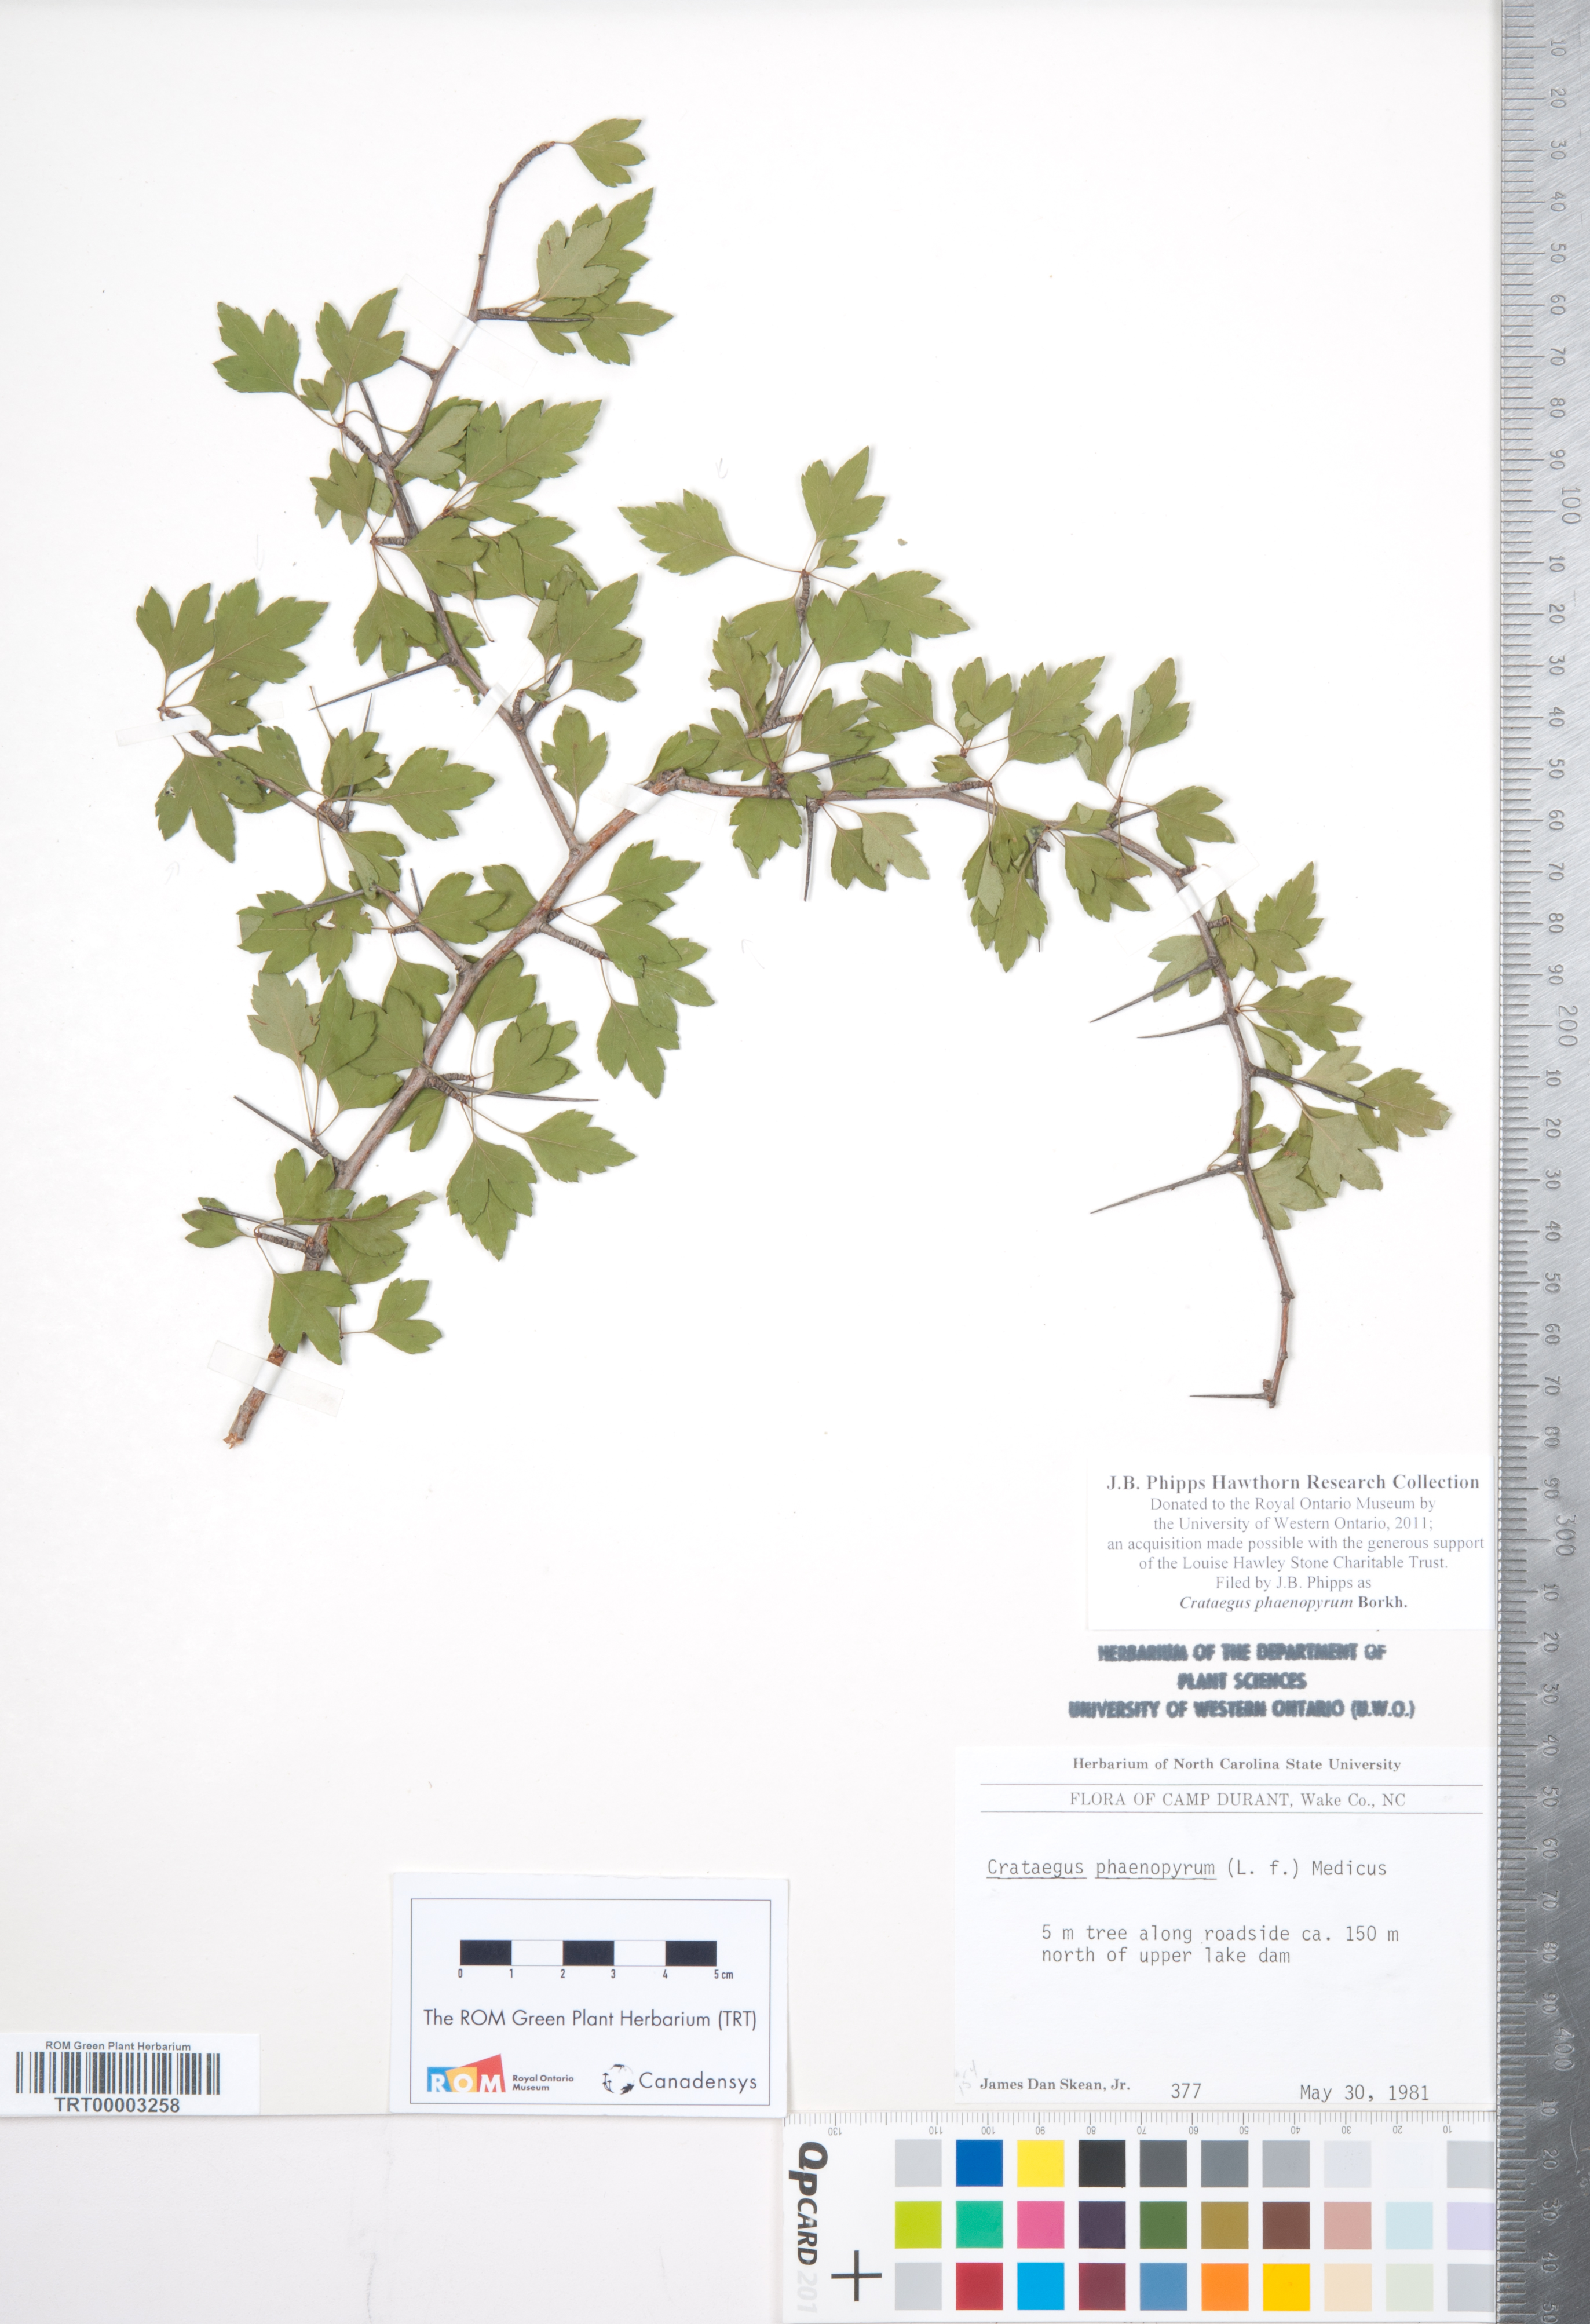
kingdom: Plantae
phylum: Tracheophyta
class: Magnoliopsida
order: Rosales
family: Rosaceae
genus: Crataegus
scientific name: Crataegus phaenopyrum
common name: Washington hawthorn
